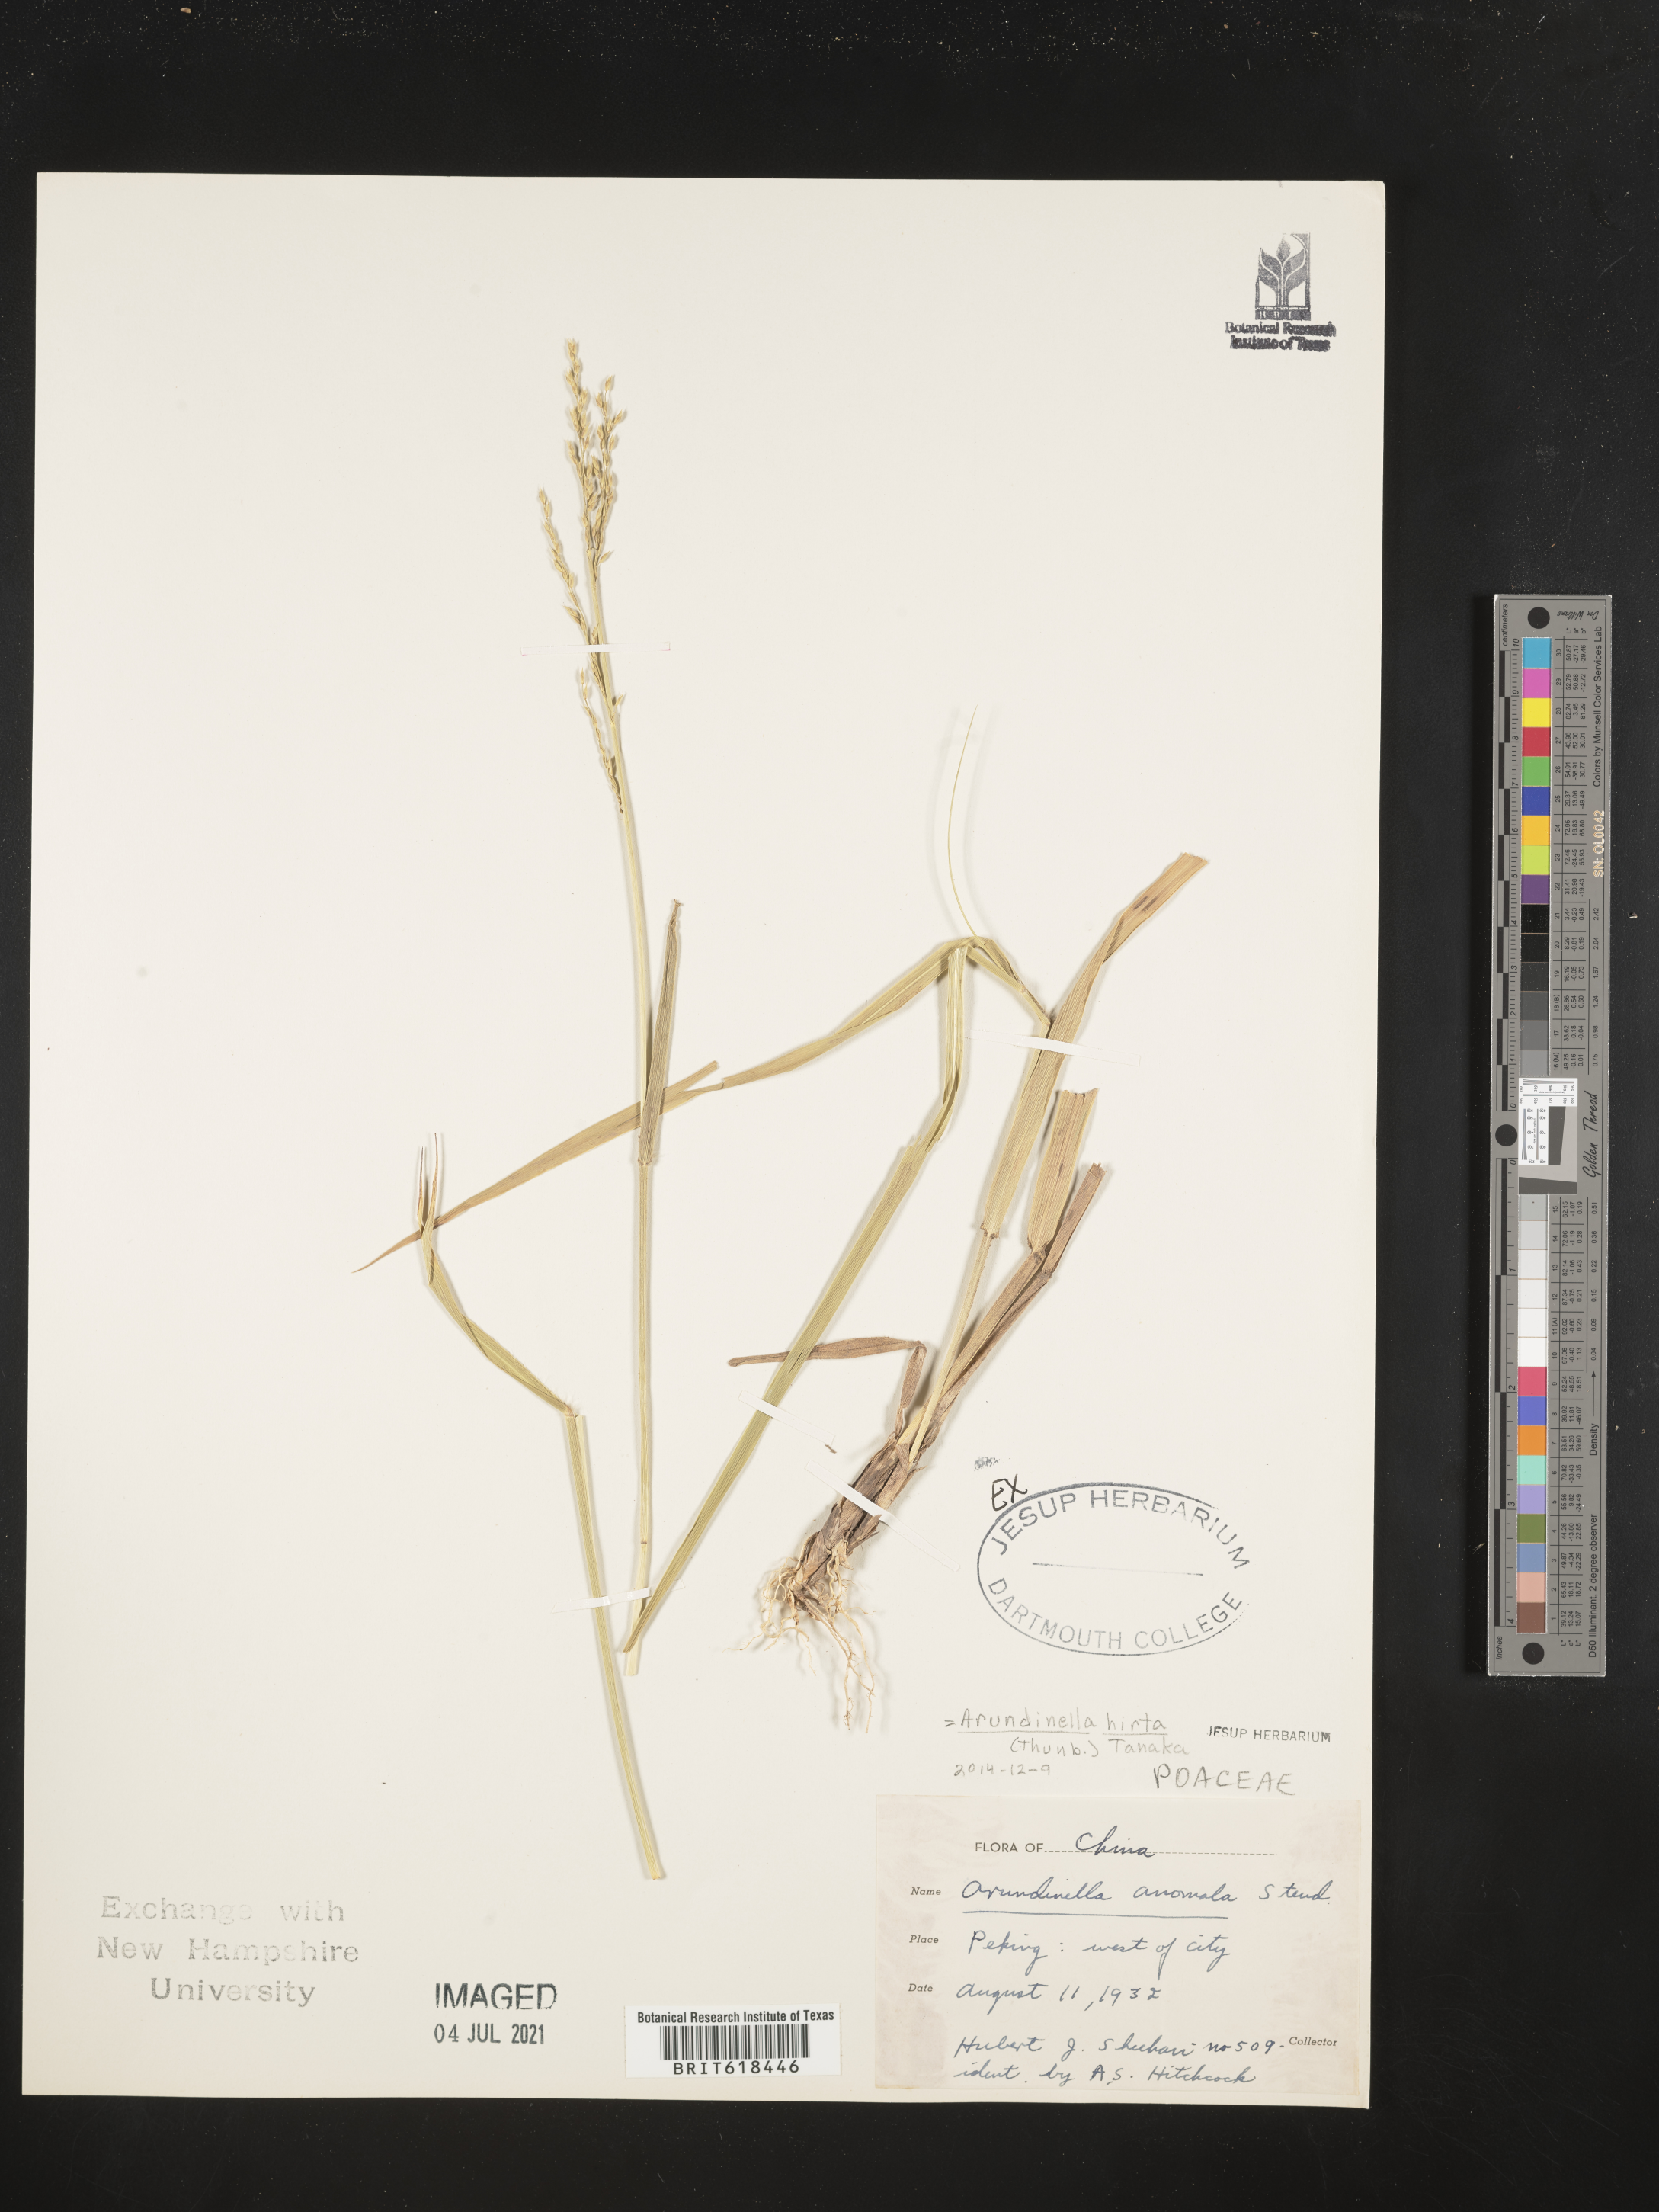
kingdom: Plantae
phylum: Tracheophyta
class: Liliopsida
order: Poales
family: Poaceae
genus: Arundinella
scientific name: Arundinella hirta
